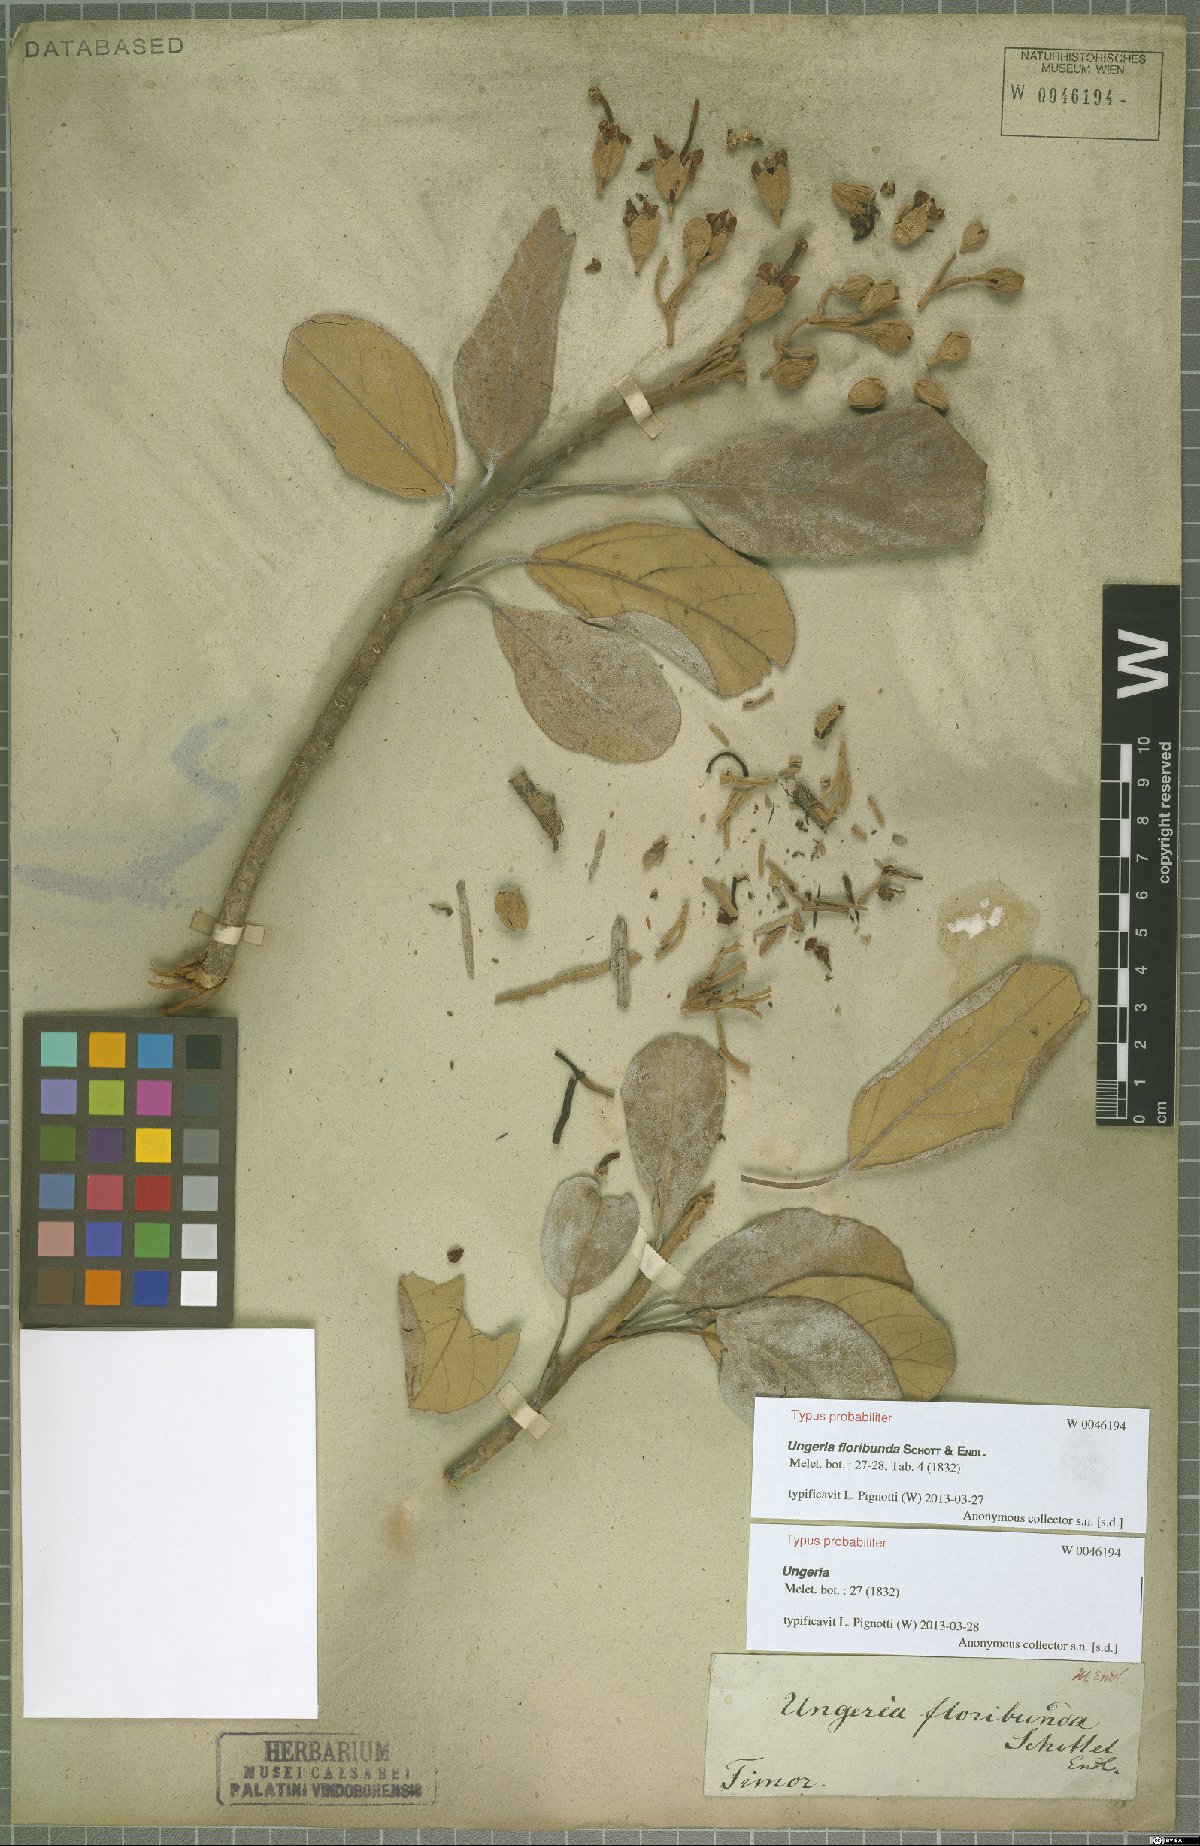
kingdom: Plantae
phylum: Tracheophyta
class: Magnoliopsida
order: Malvales
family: Malvaceae
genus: Ungeria
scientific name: Ungeria floribunda
